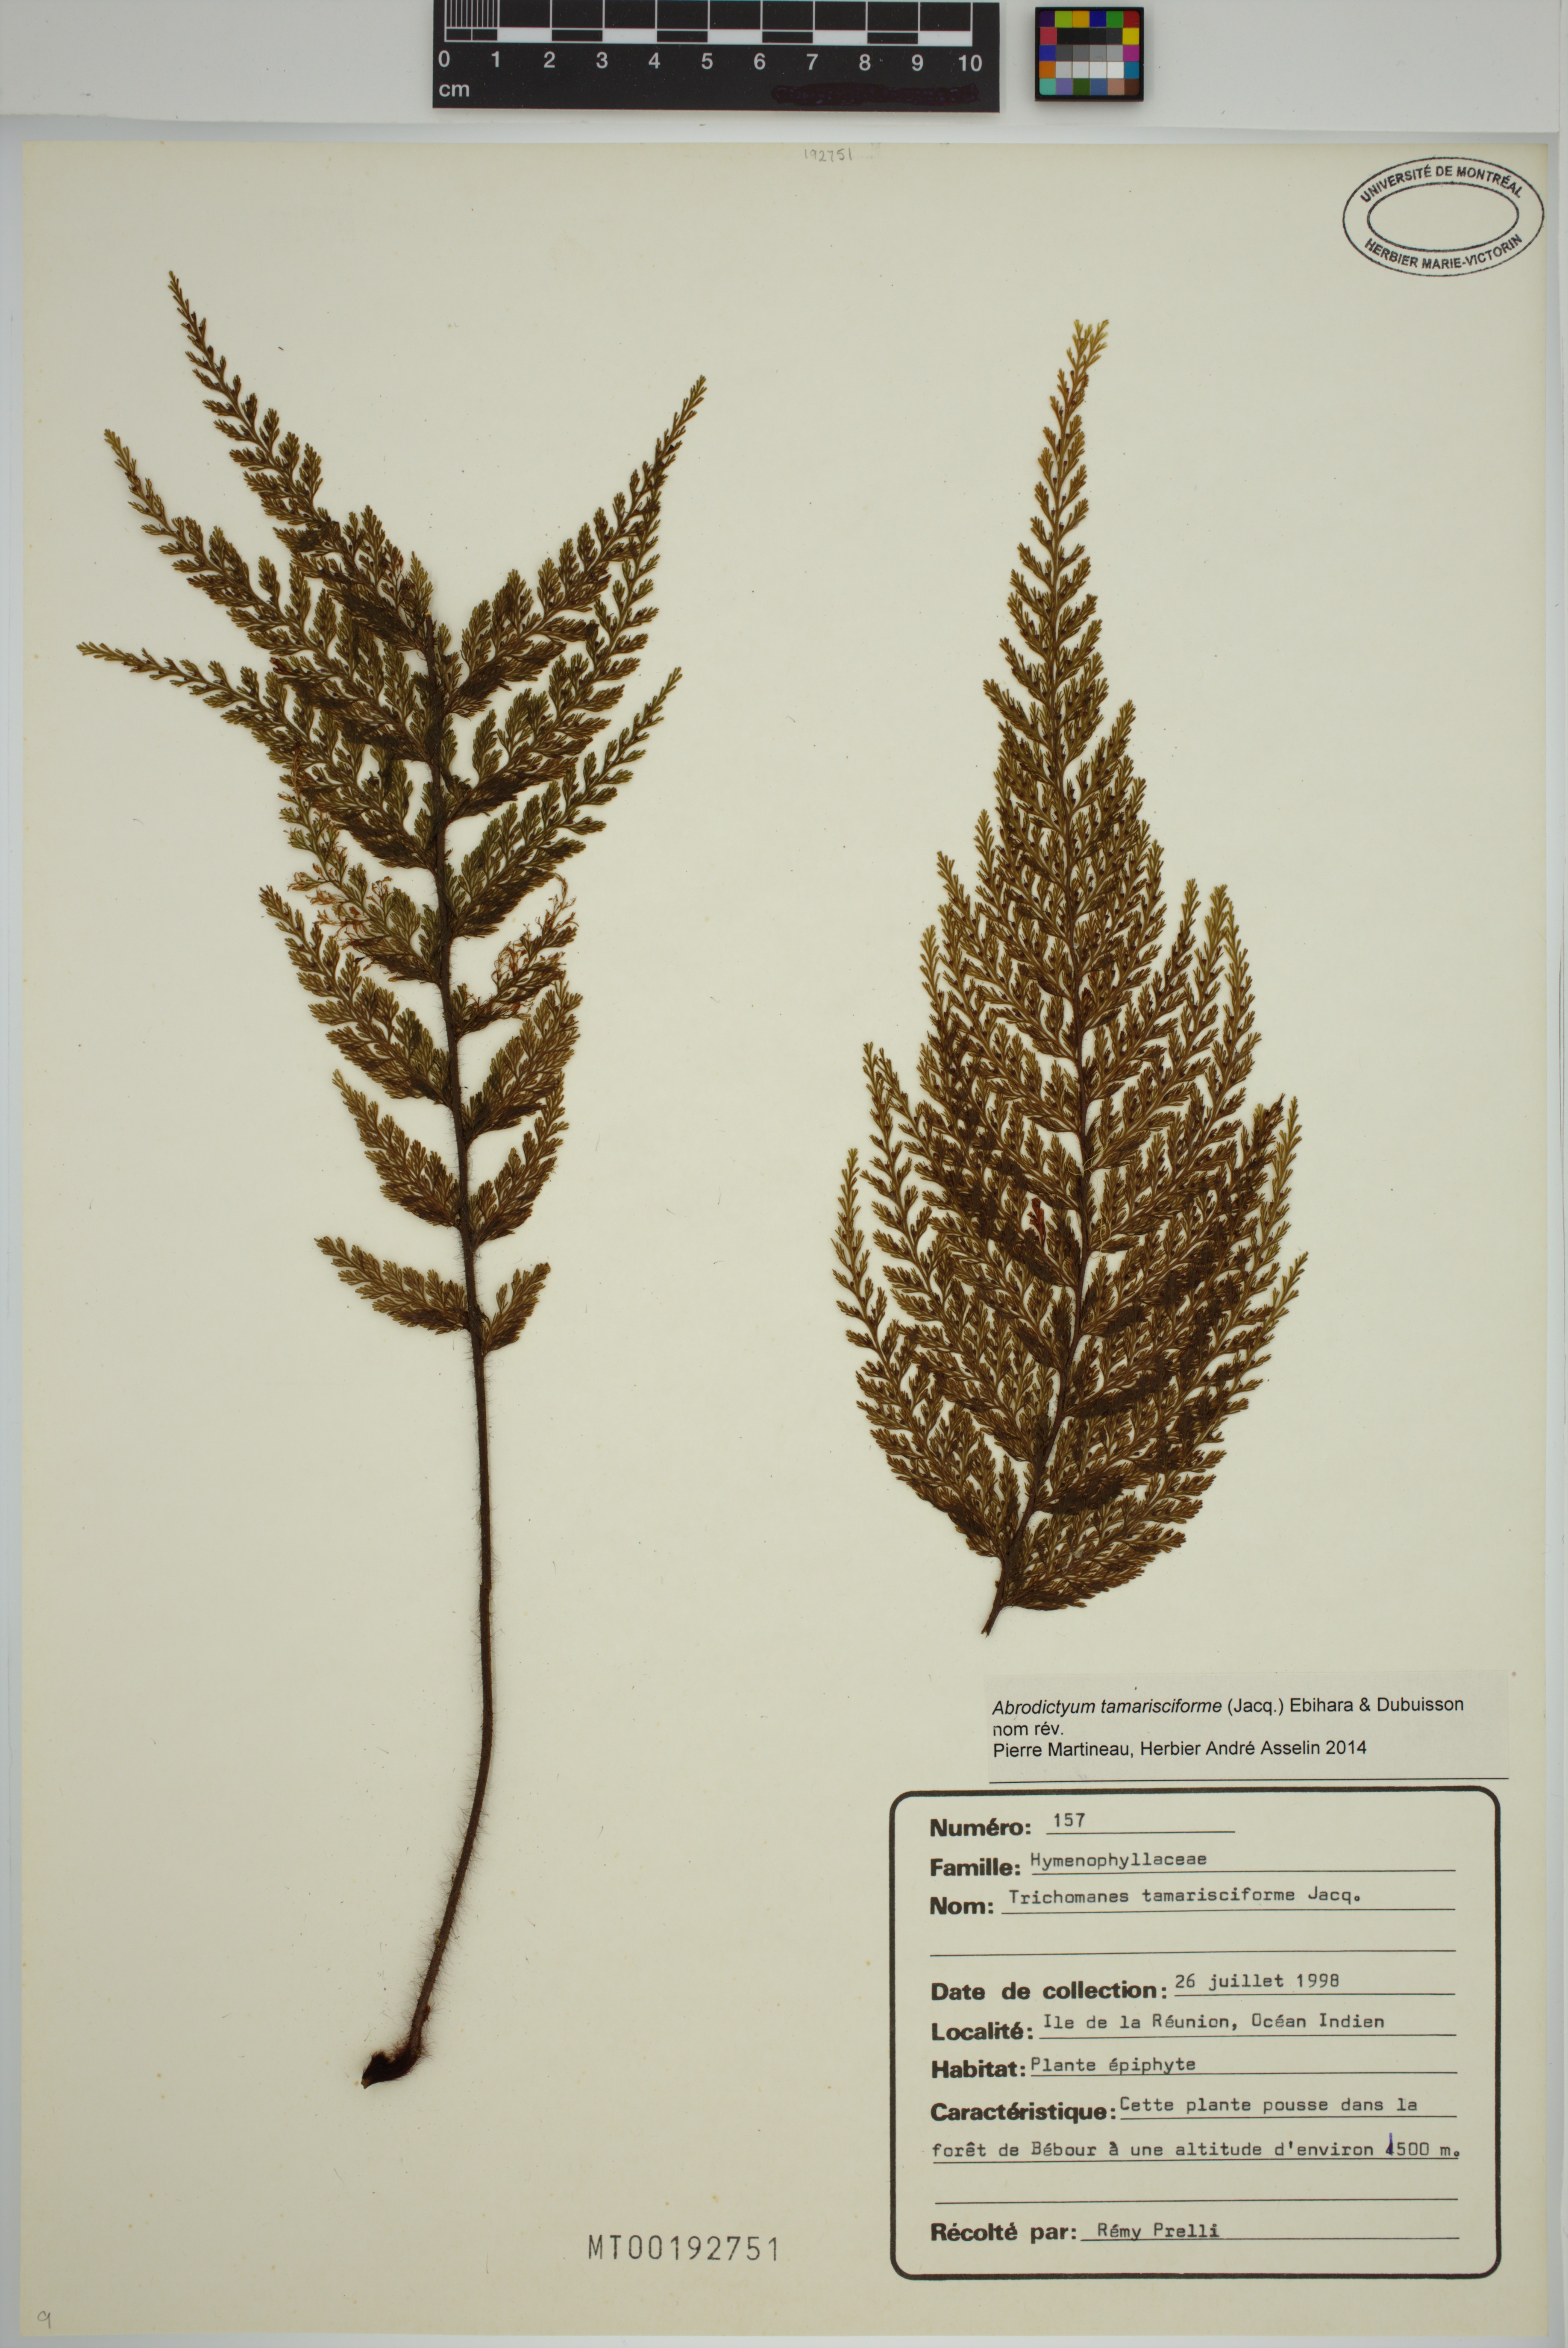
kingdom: Plantae
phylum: Tracheophyta
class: Polypodiopsida
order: Hymenophyllales
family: Hymenophyllaceae
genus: Abrodictyum
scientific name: Abrodictyum tamarisciforme
